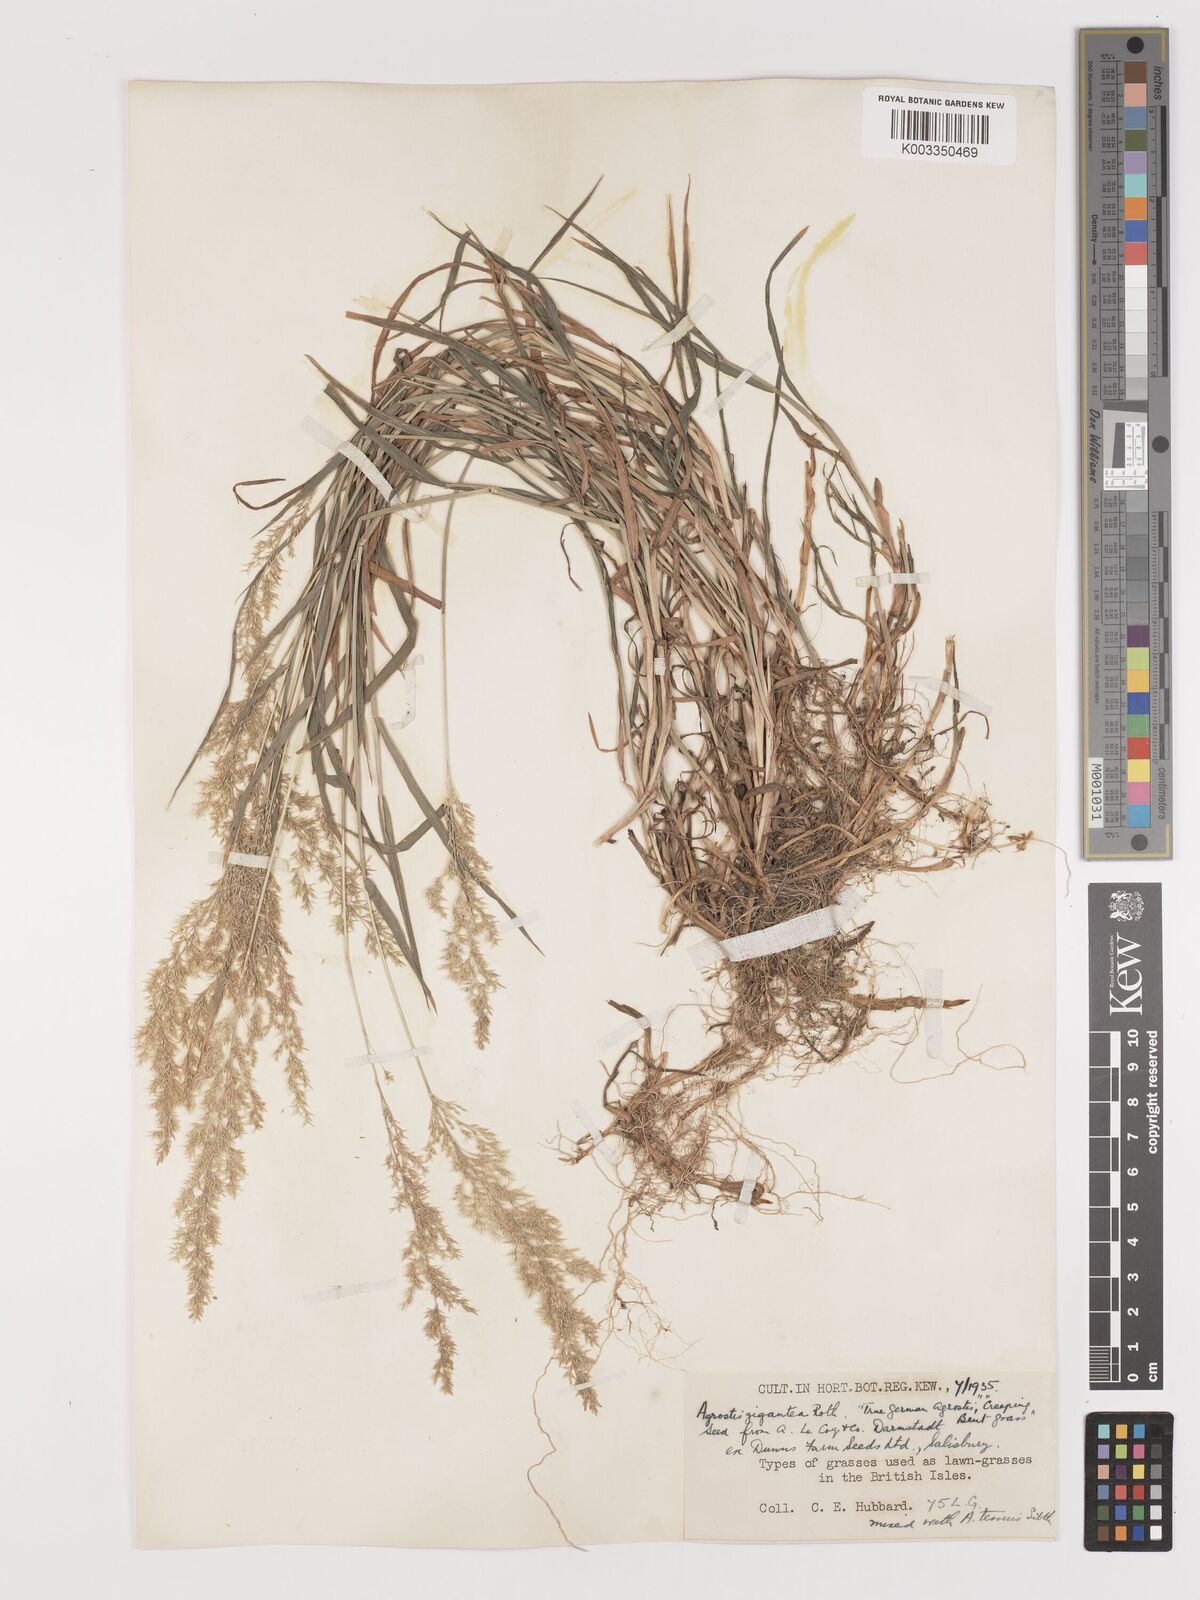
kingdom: Plantae
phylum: Tracheophyta
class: Liliopsida
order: Poales
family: Poaceae
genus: Agrostis
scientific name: Agrostis gigantea
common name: Black bent
